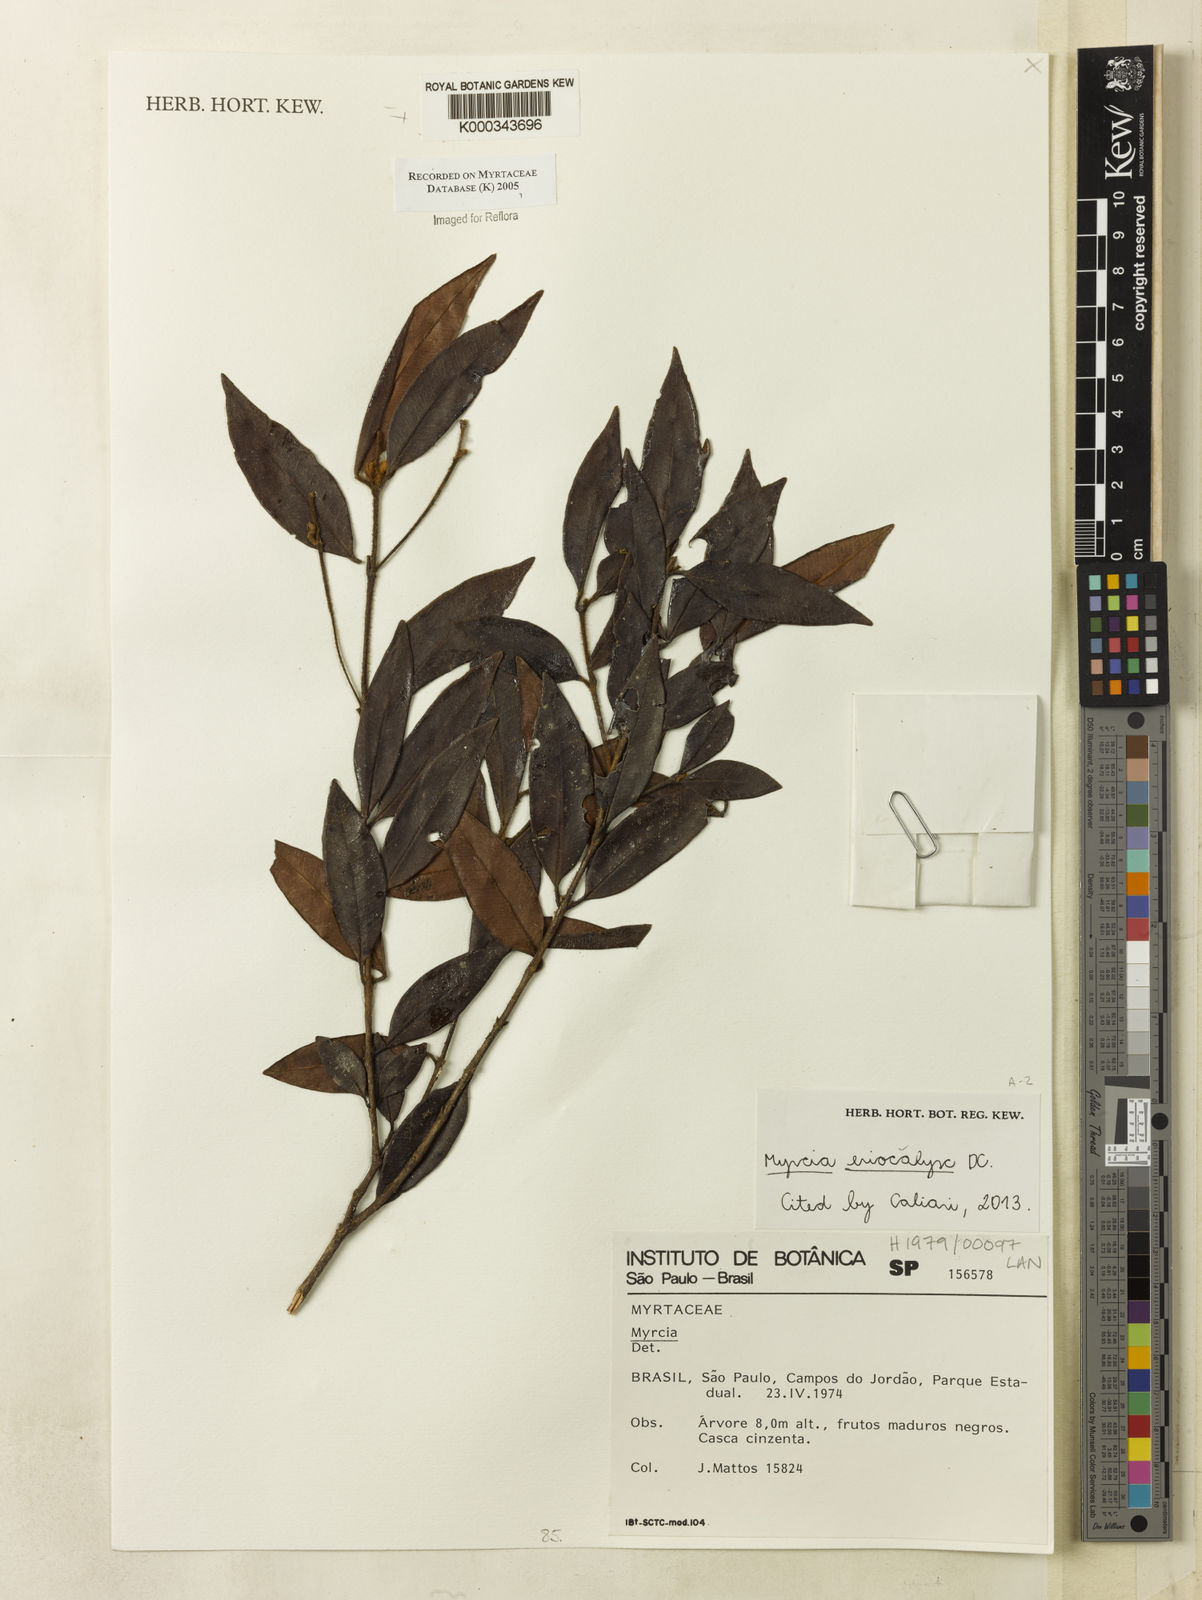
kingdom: Plantae
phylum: Tracheophyta
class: Magnoliopsida
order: Myrtales
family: Myrtaceae
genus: Myrcia
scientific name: Myrcia
